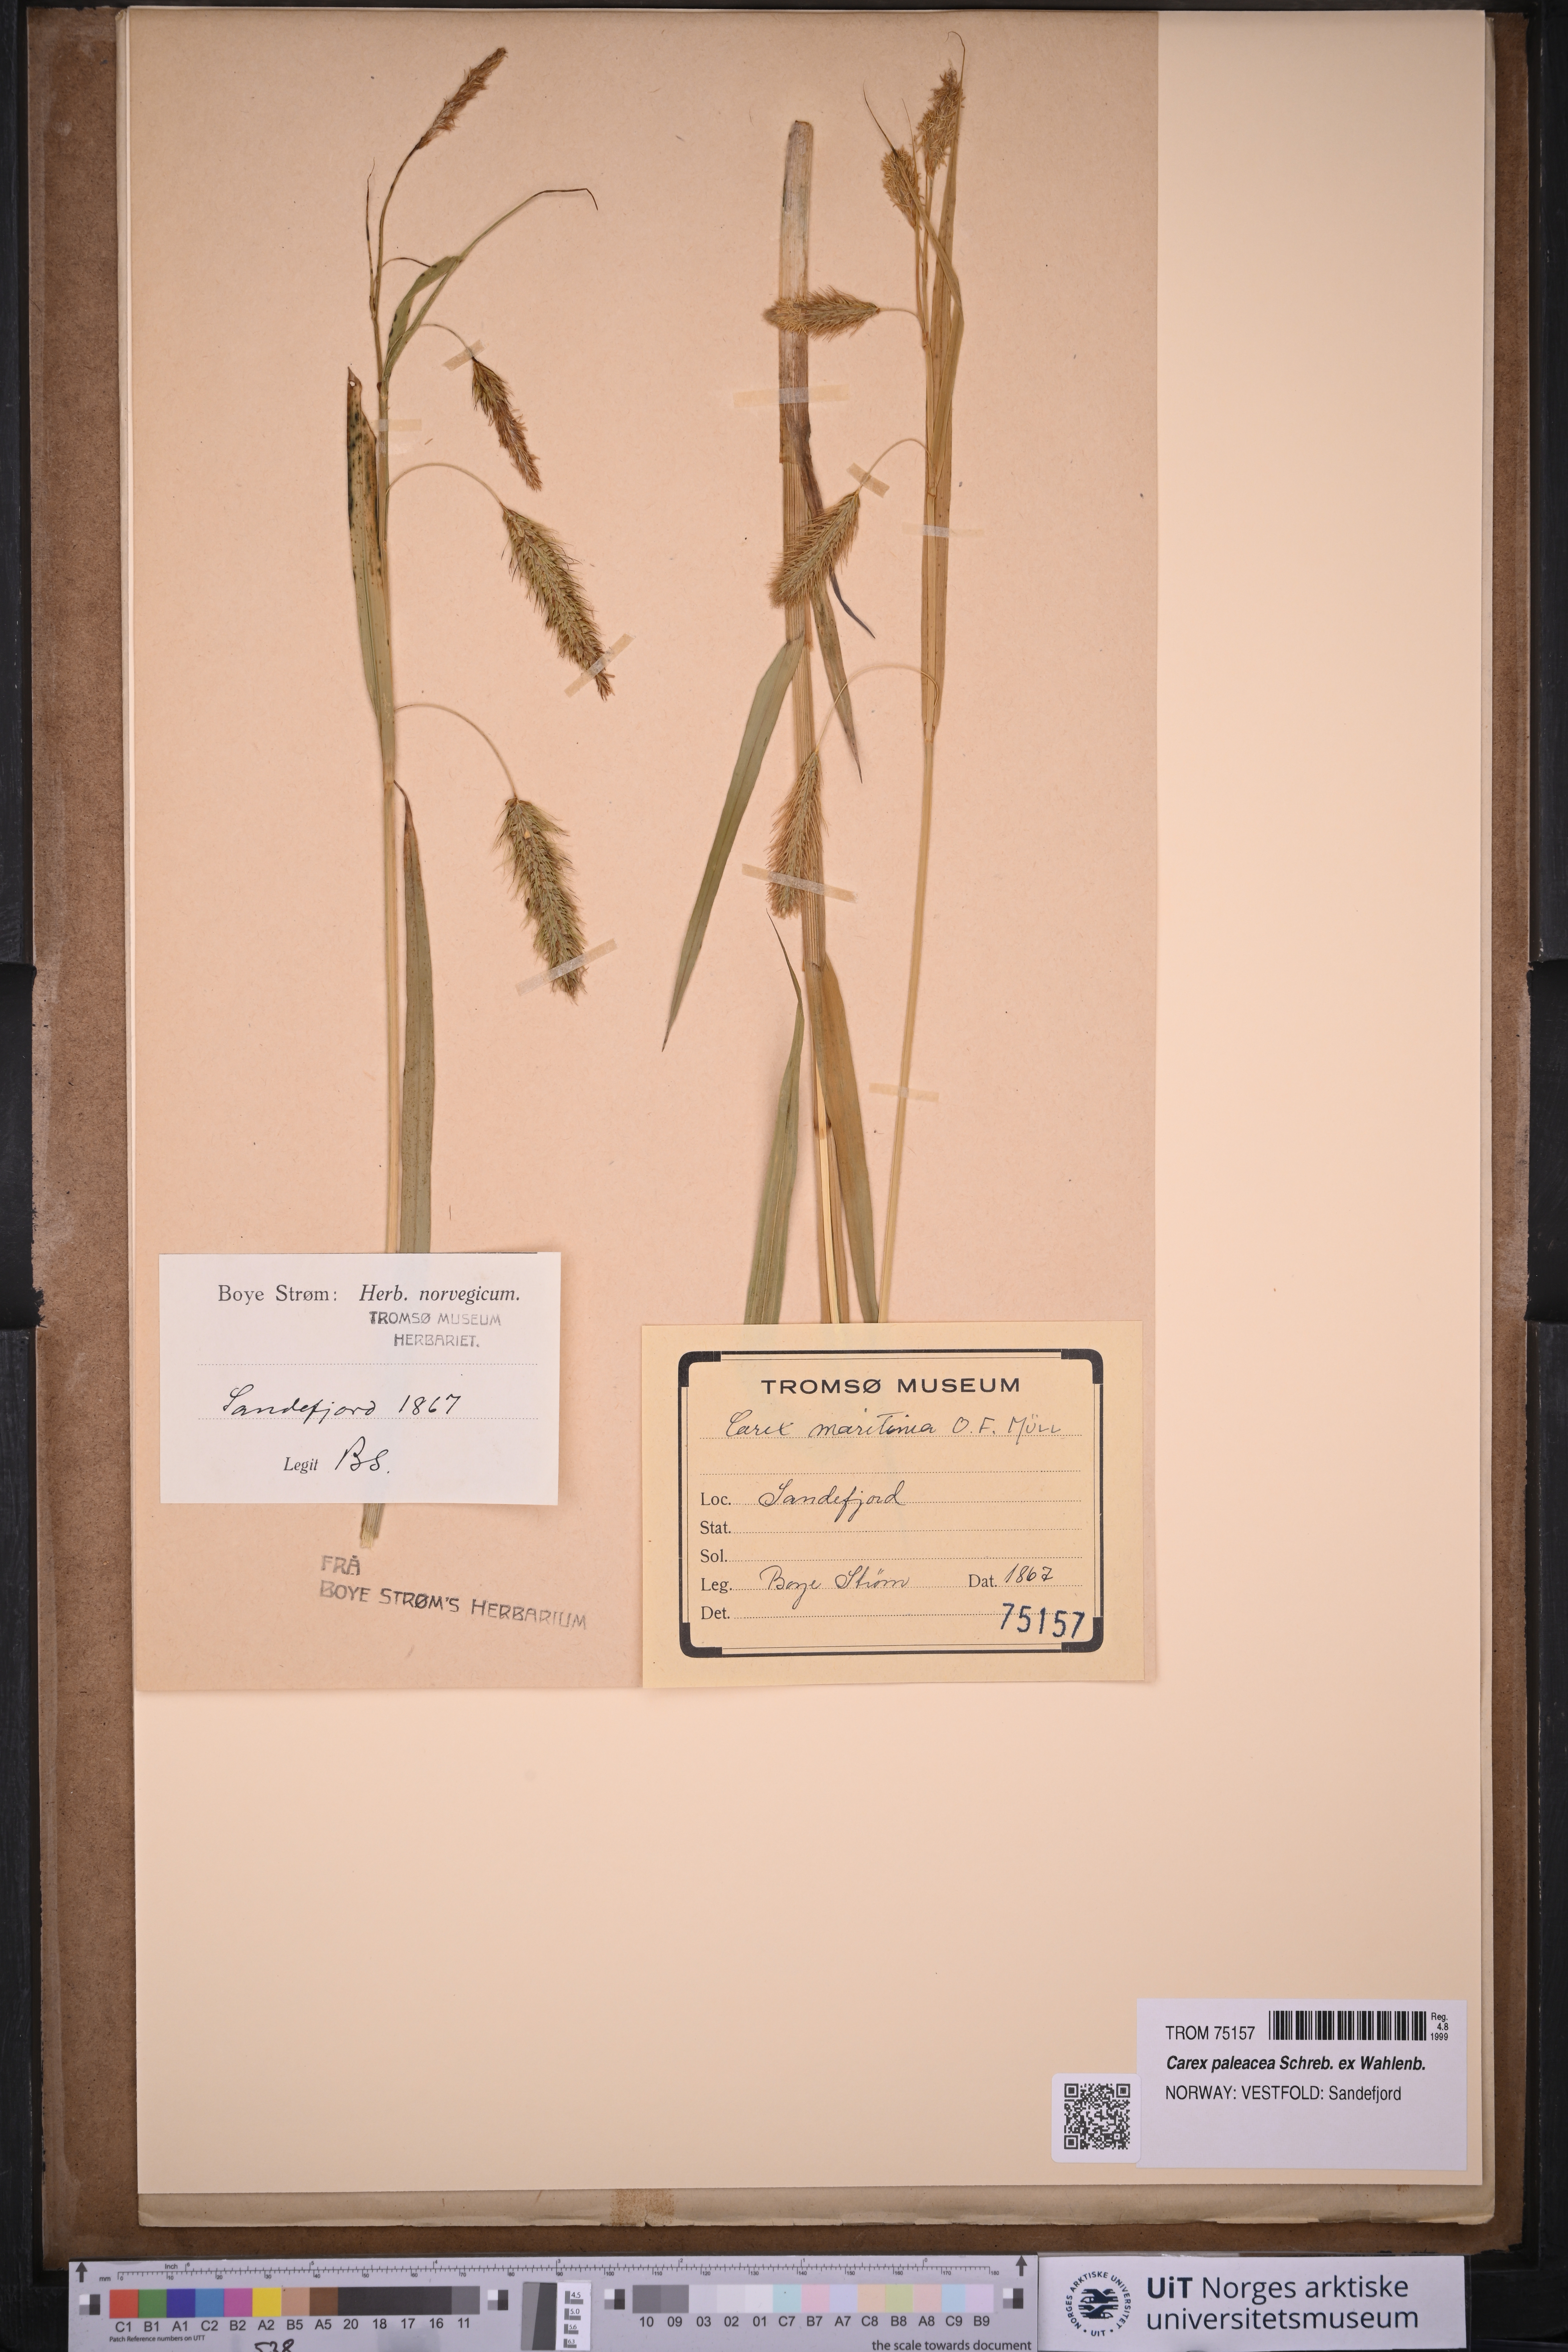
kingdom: Plantae
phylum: Tracheophyta
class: Liliopsida
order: Poales
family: Cyperaceae
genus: Carex
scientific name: Carex paleacea
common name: Chaffy sedge
